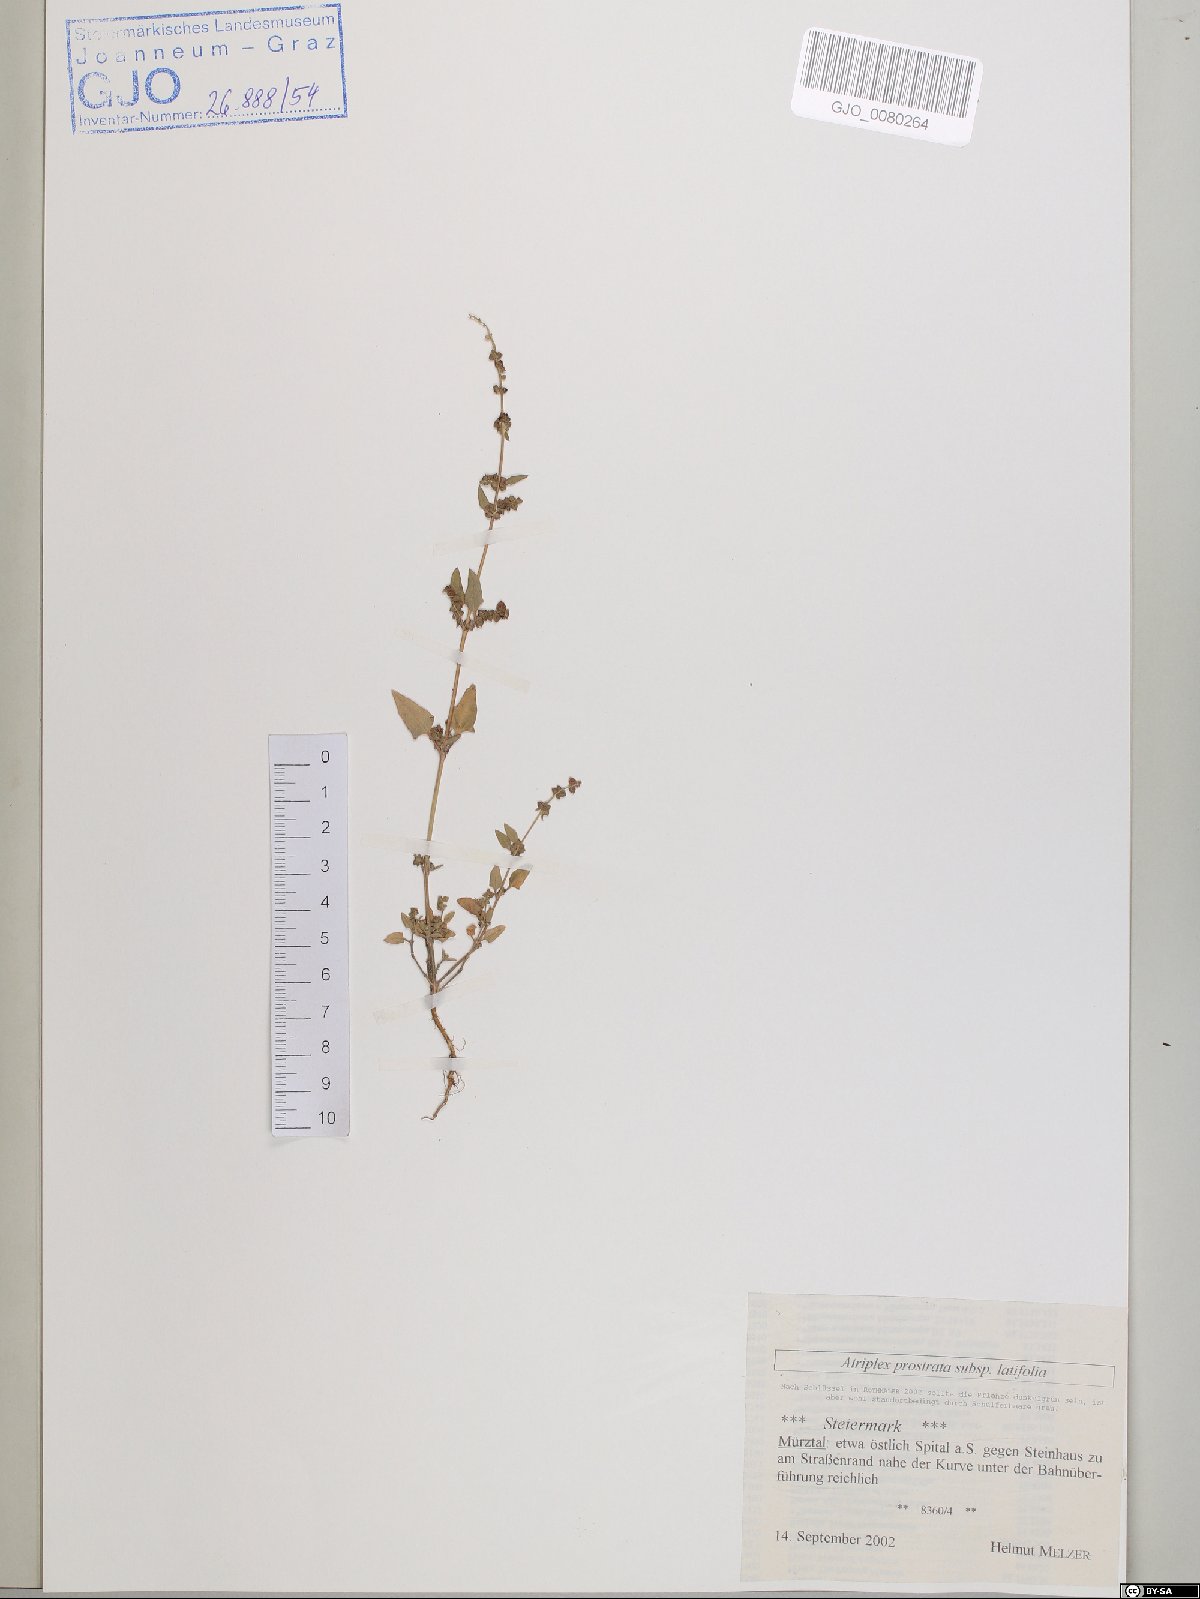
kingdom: Plantae
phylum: Tracheophyta
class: Magnoliopsida
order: Caryophyllales
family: Amaranthaceae
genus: Atriplex
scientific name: Atriplex prostrata
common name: Spear-leaved orache
